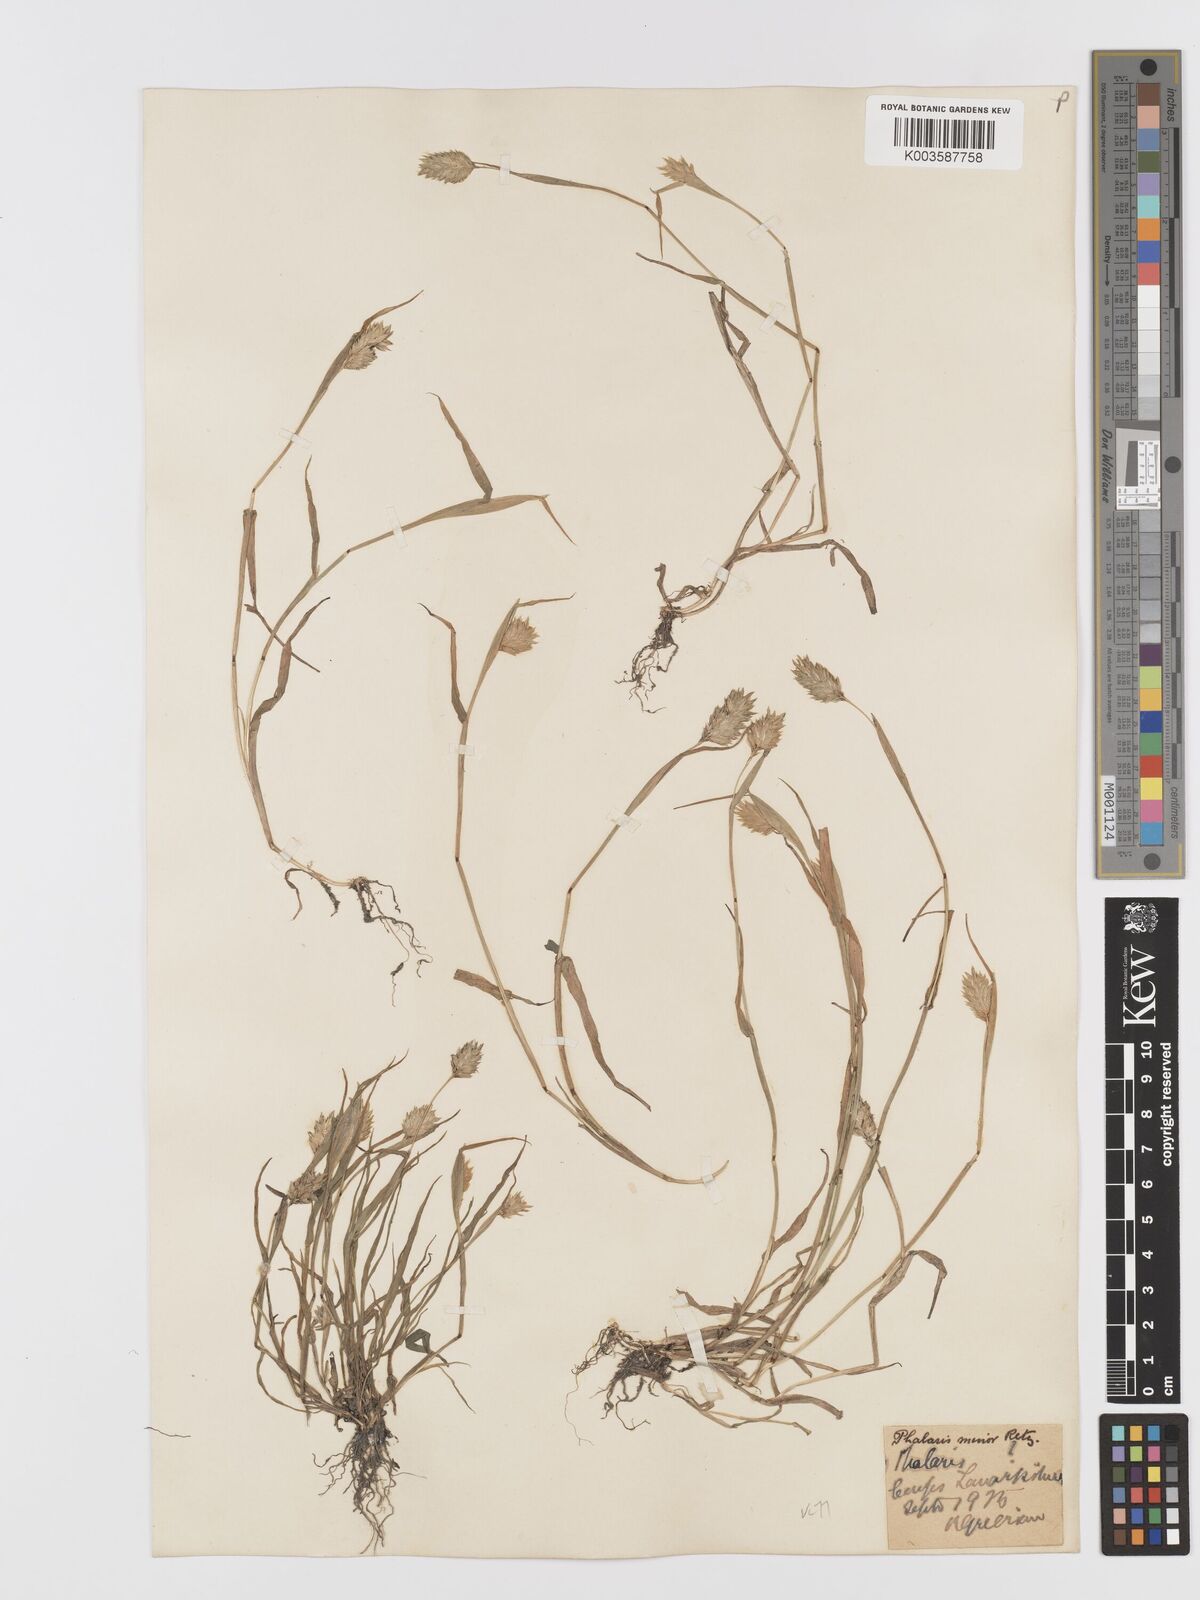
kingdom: Plantae
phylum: Tracheophyta
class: Liliopsida
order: Poales
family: Poaceae
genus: Phalaris
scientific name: Phalaris minor
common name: Littleseed canarygrass
